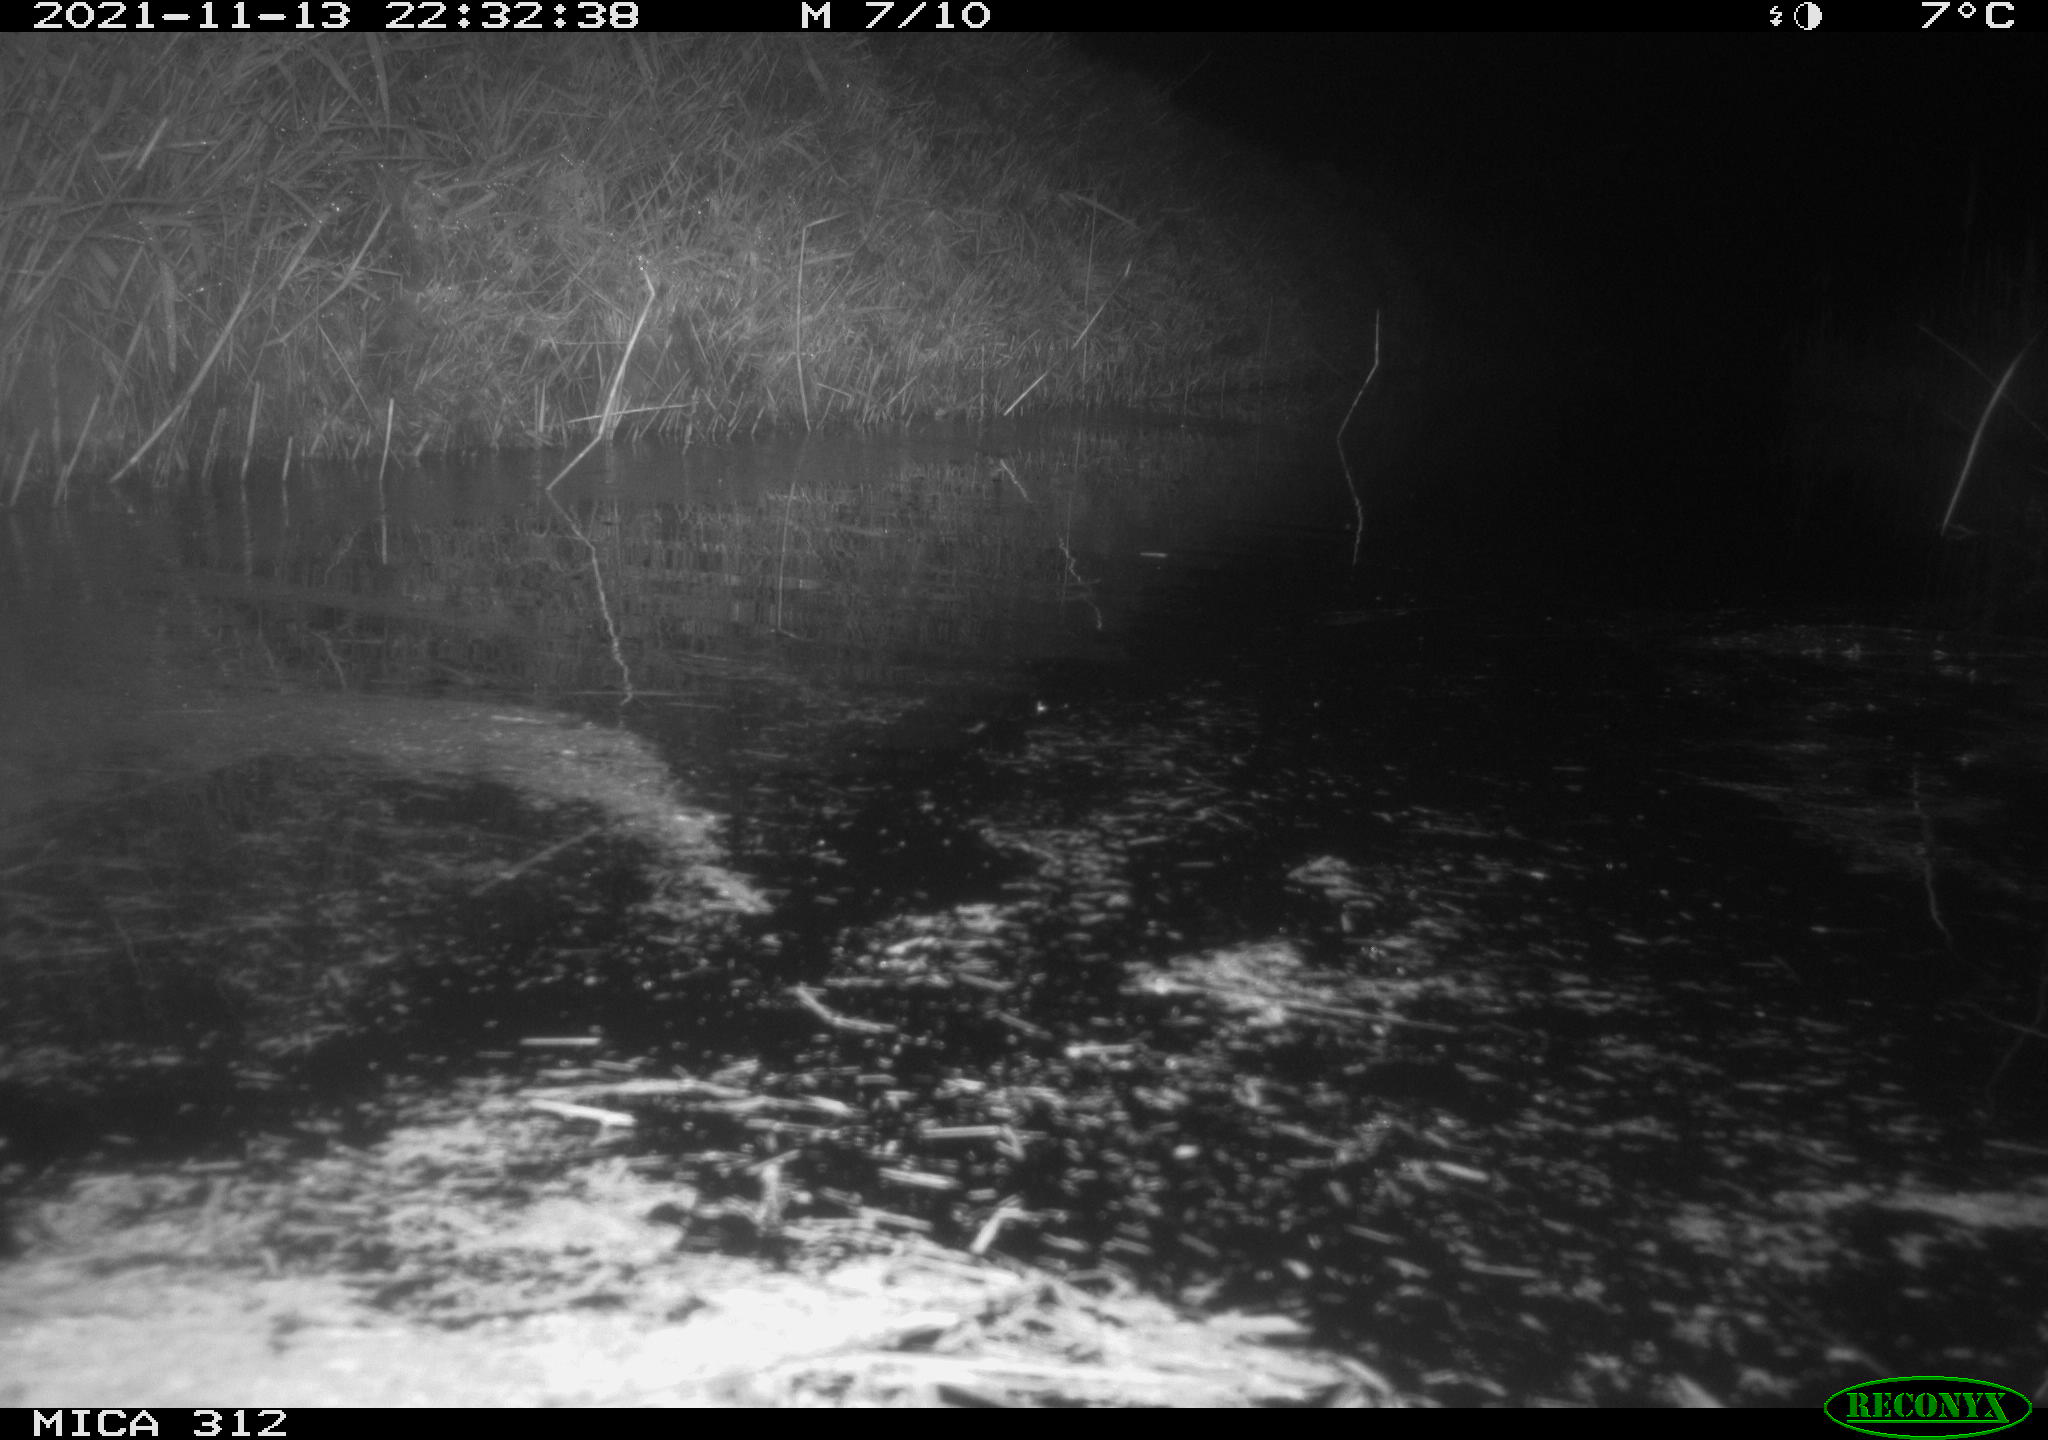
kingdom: Animalia
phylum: Chordata
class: Mammalia
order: Rodentia
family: Muridae
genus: Rattus
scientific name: Rattus norvegicus
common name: Brown rat
